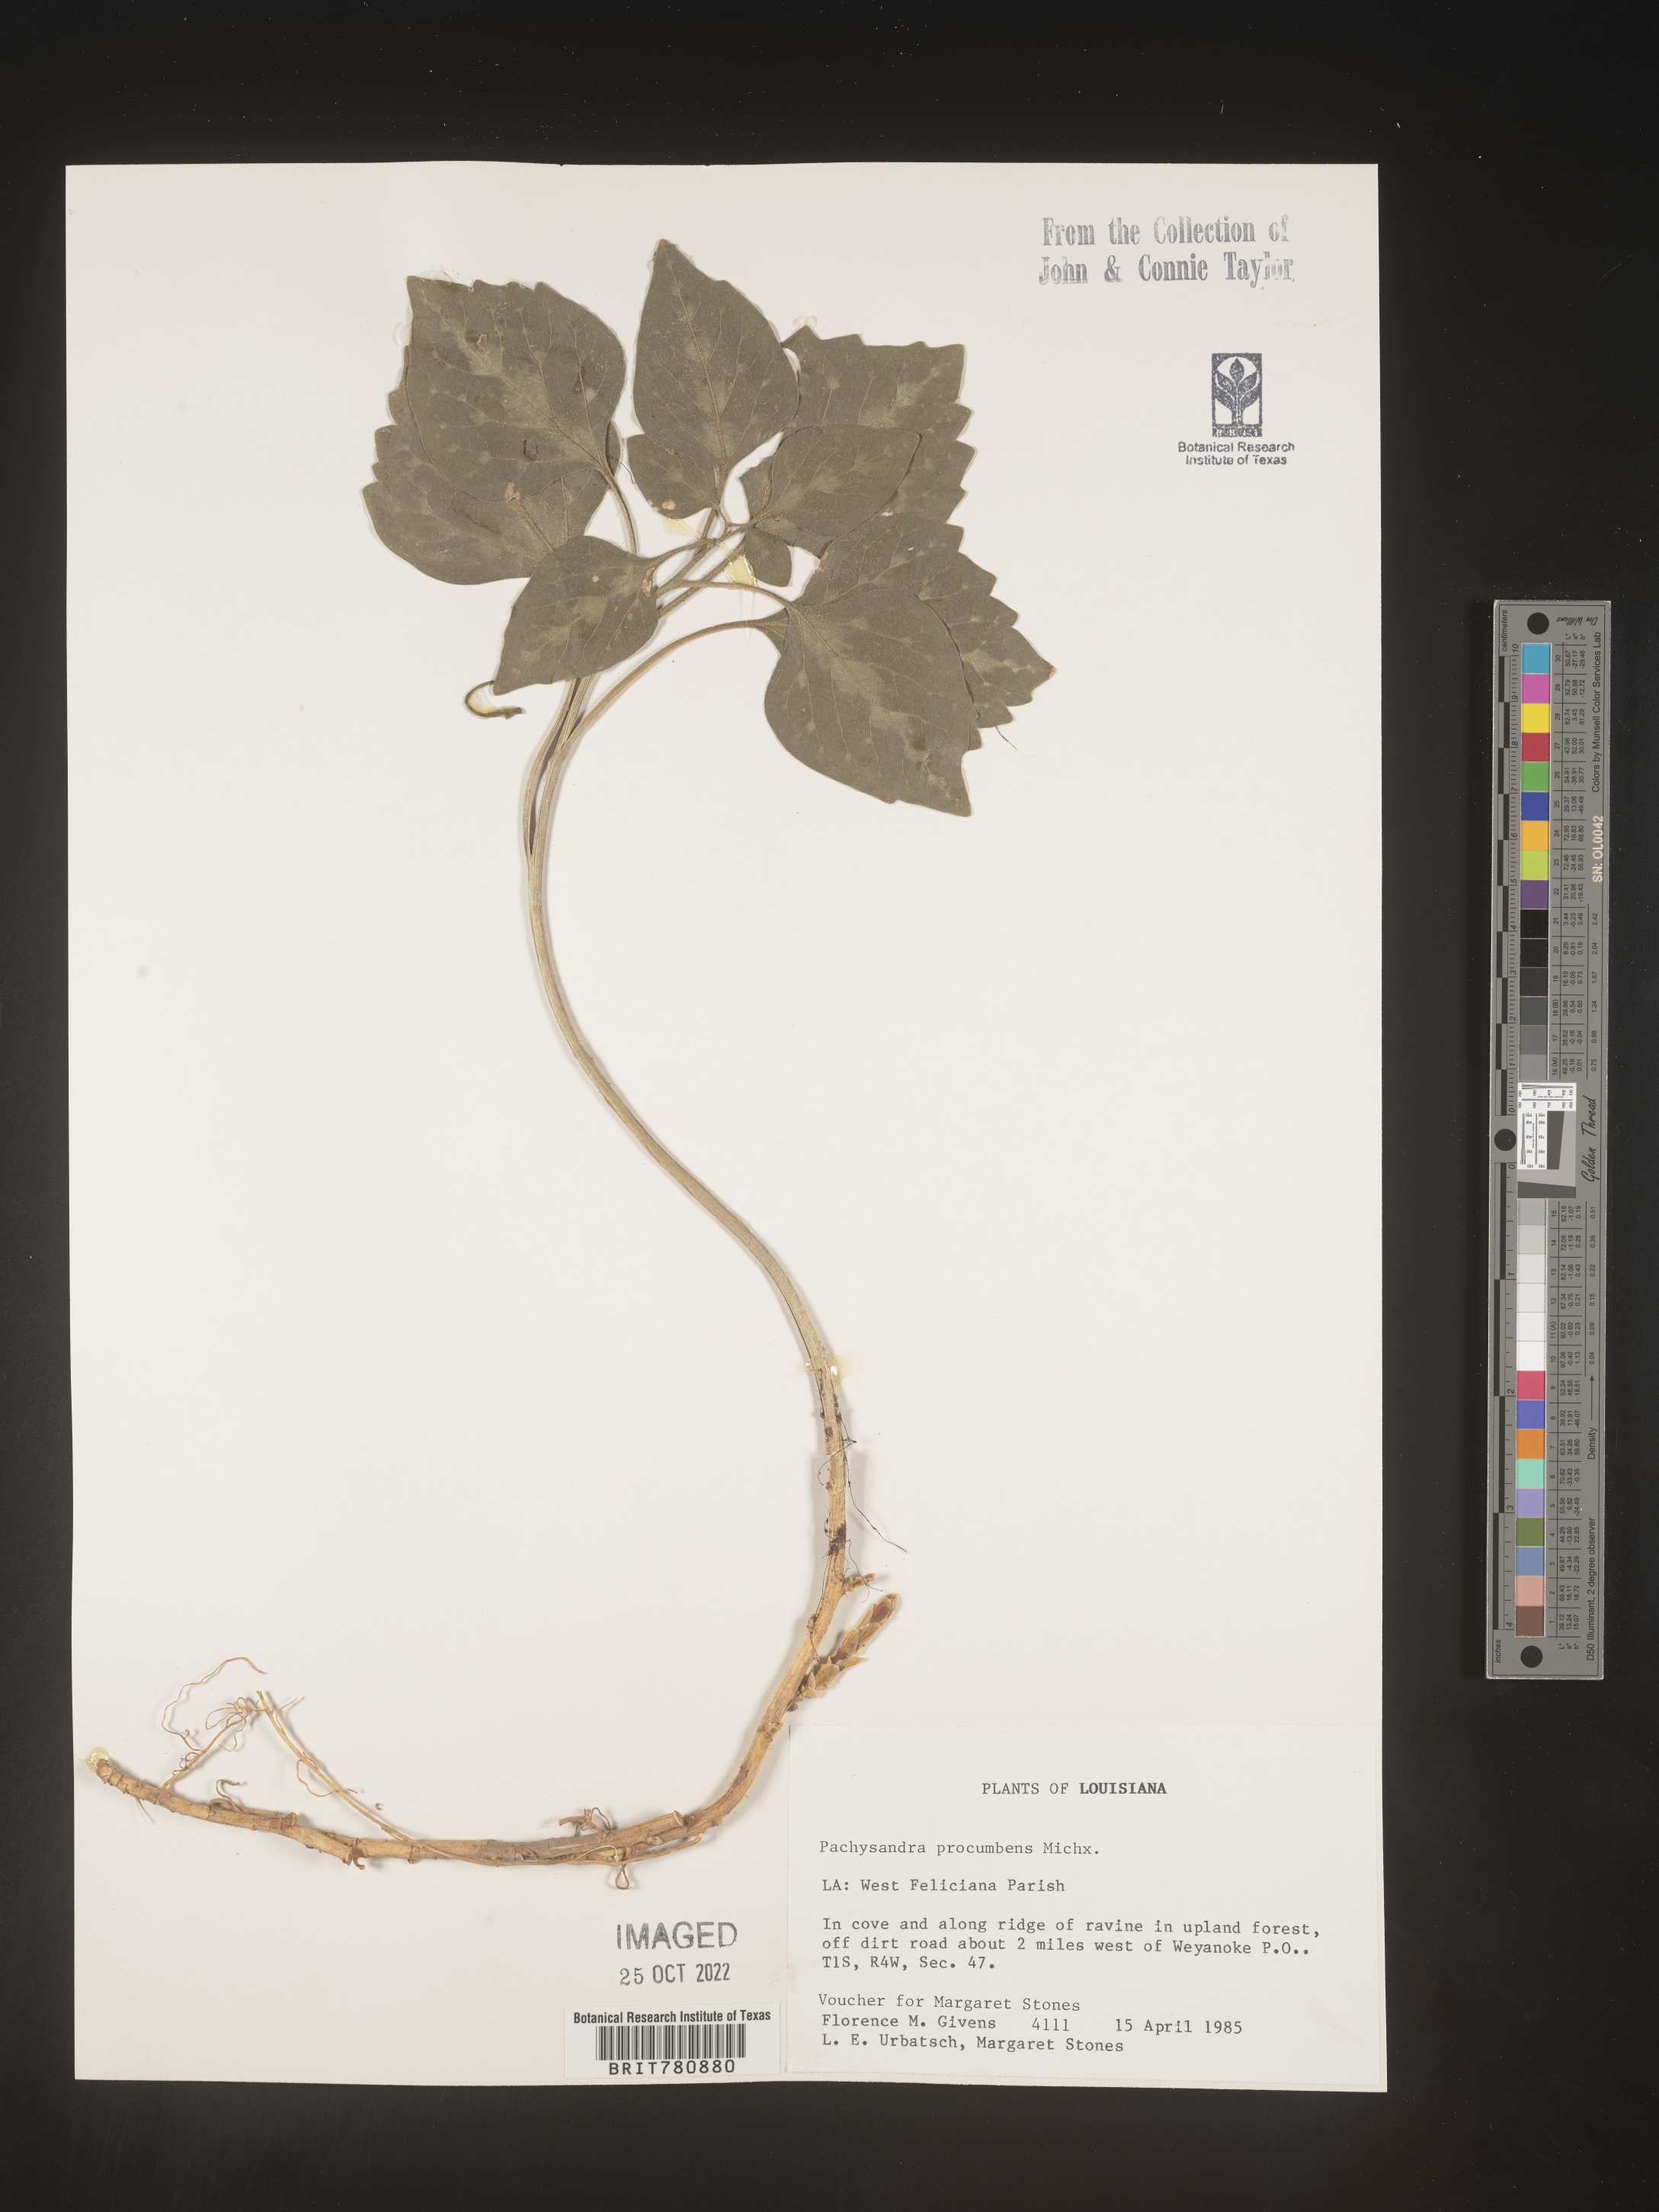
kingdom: Plantae
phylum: Tracheophyta
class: Magnoliopsida
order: Buxales
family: Buxaceae
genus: Pachysandra
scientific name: Pachysandra
